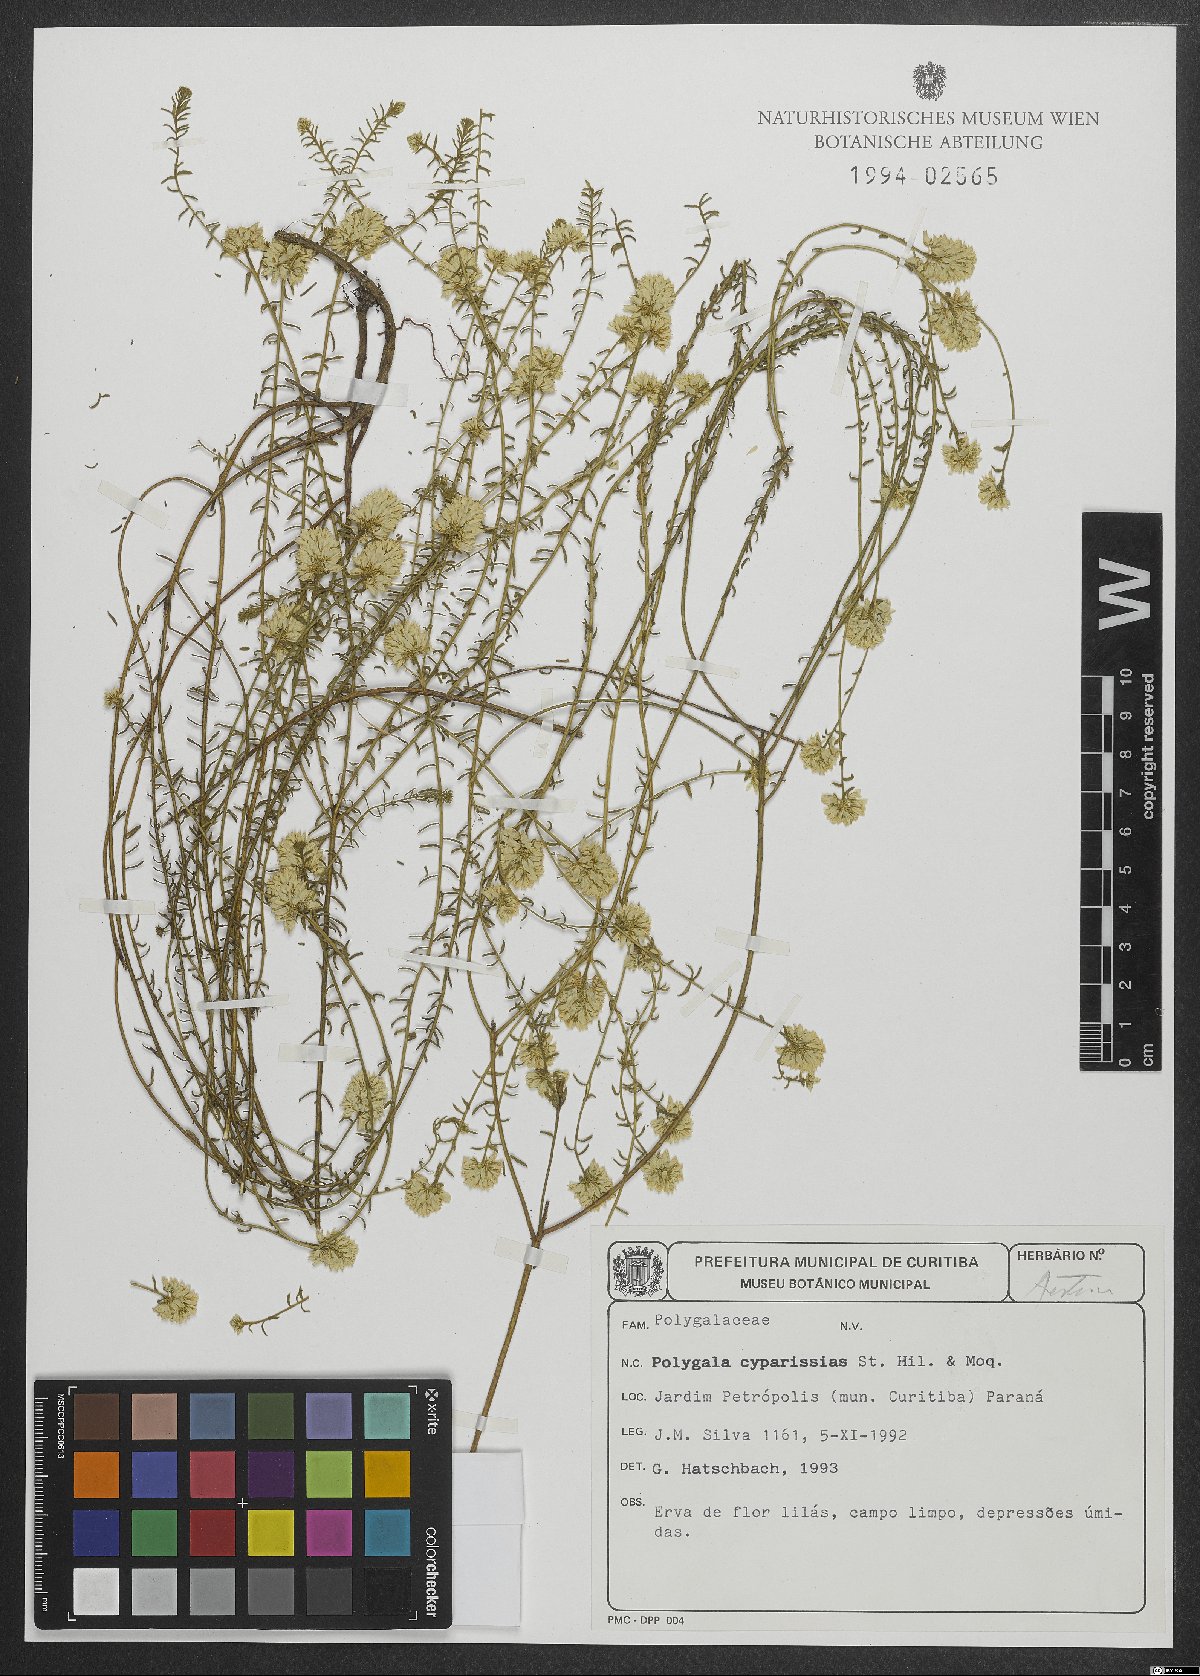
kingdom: Plantae
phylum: Tracheophyta
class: Magnoliopsida
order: Fabales
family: Polygalaceae
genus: Polygala
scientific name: Polygala cyparissias
